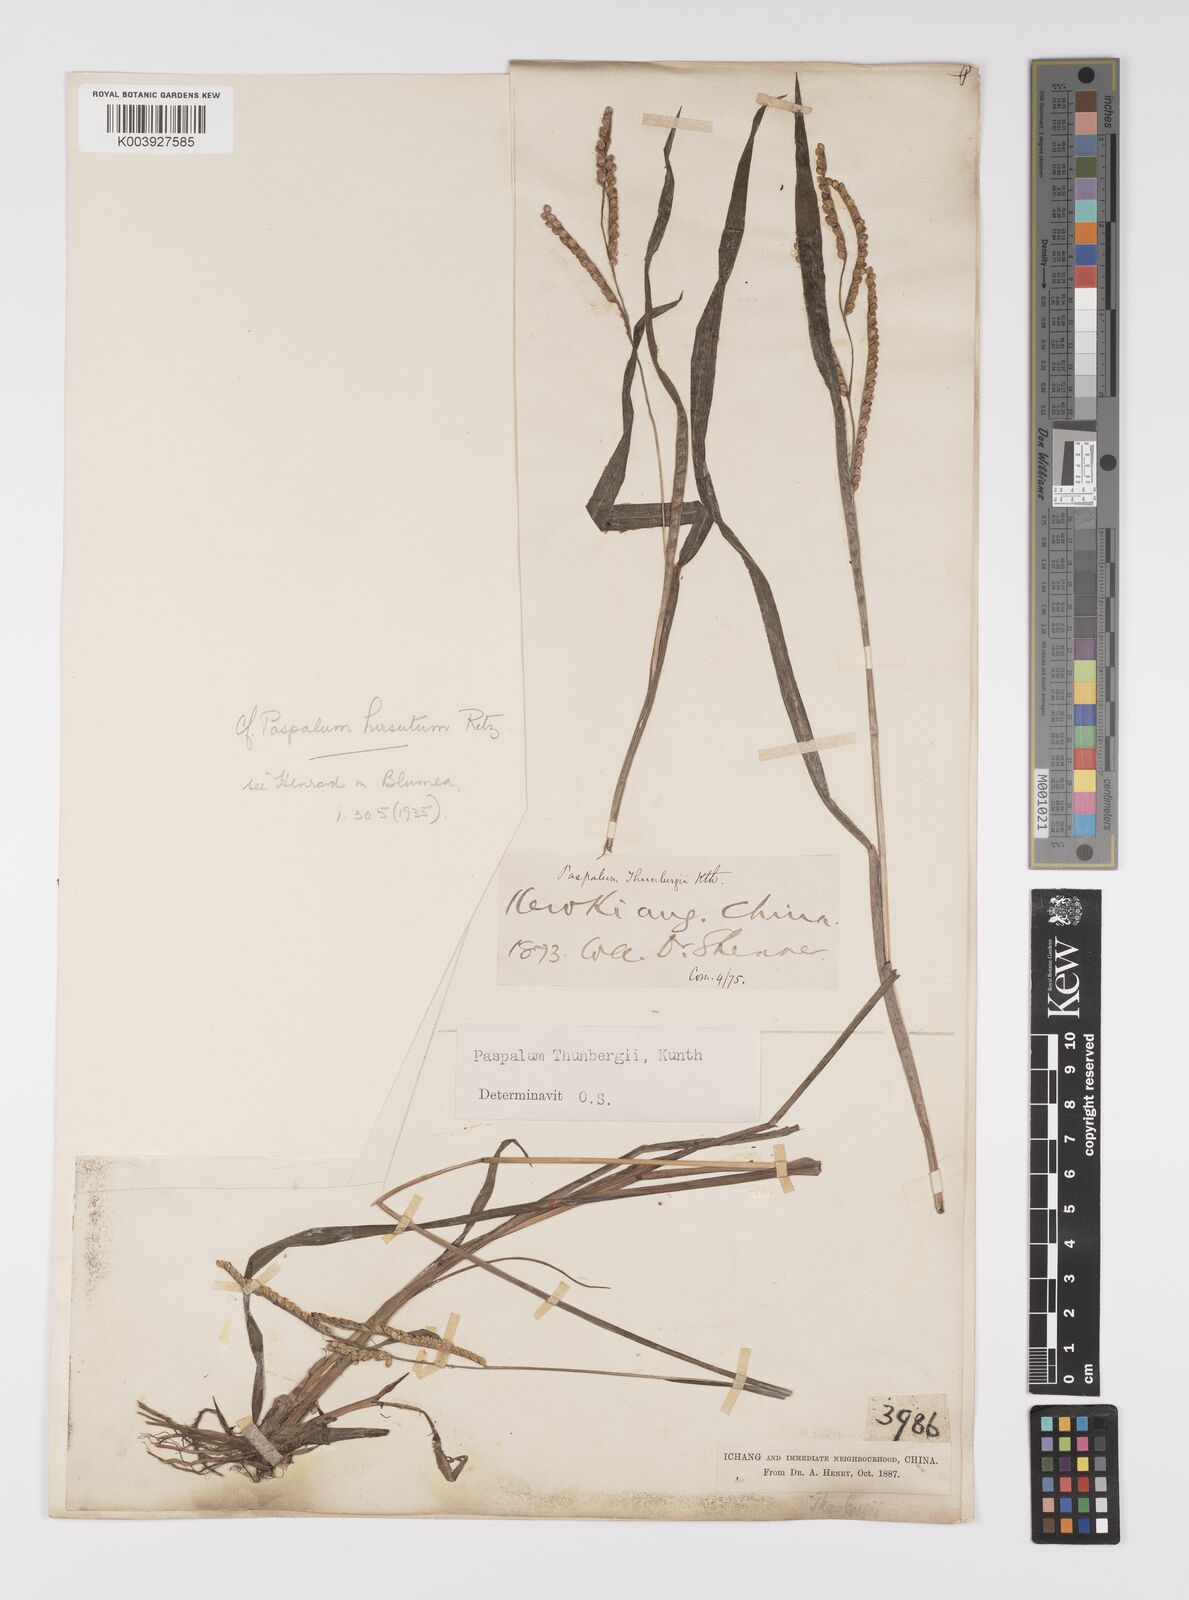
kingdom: Plantae
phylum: Tracheophyta
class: Liliopsida
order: Poales
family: Poaceae
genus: Paspalum
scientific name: Paspalum thunbergii
